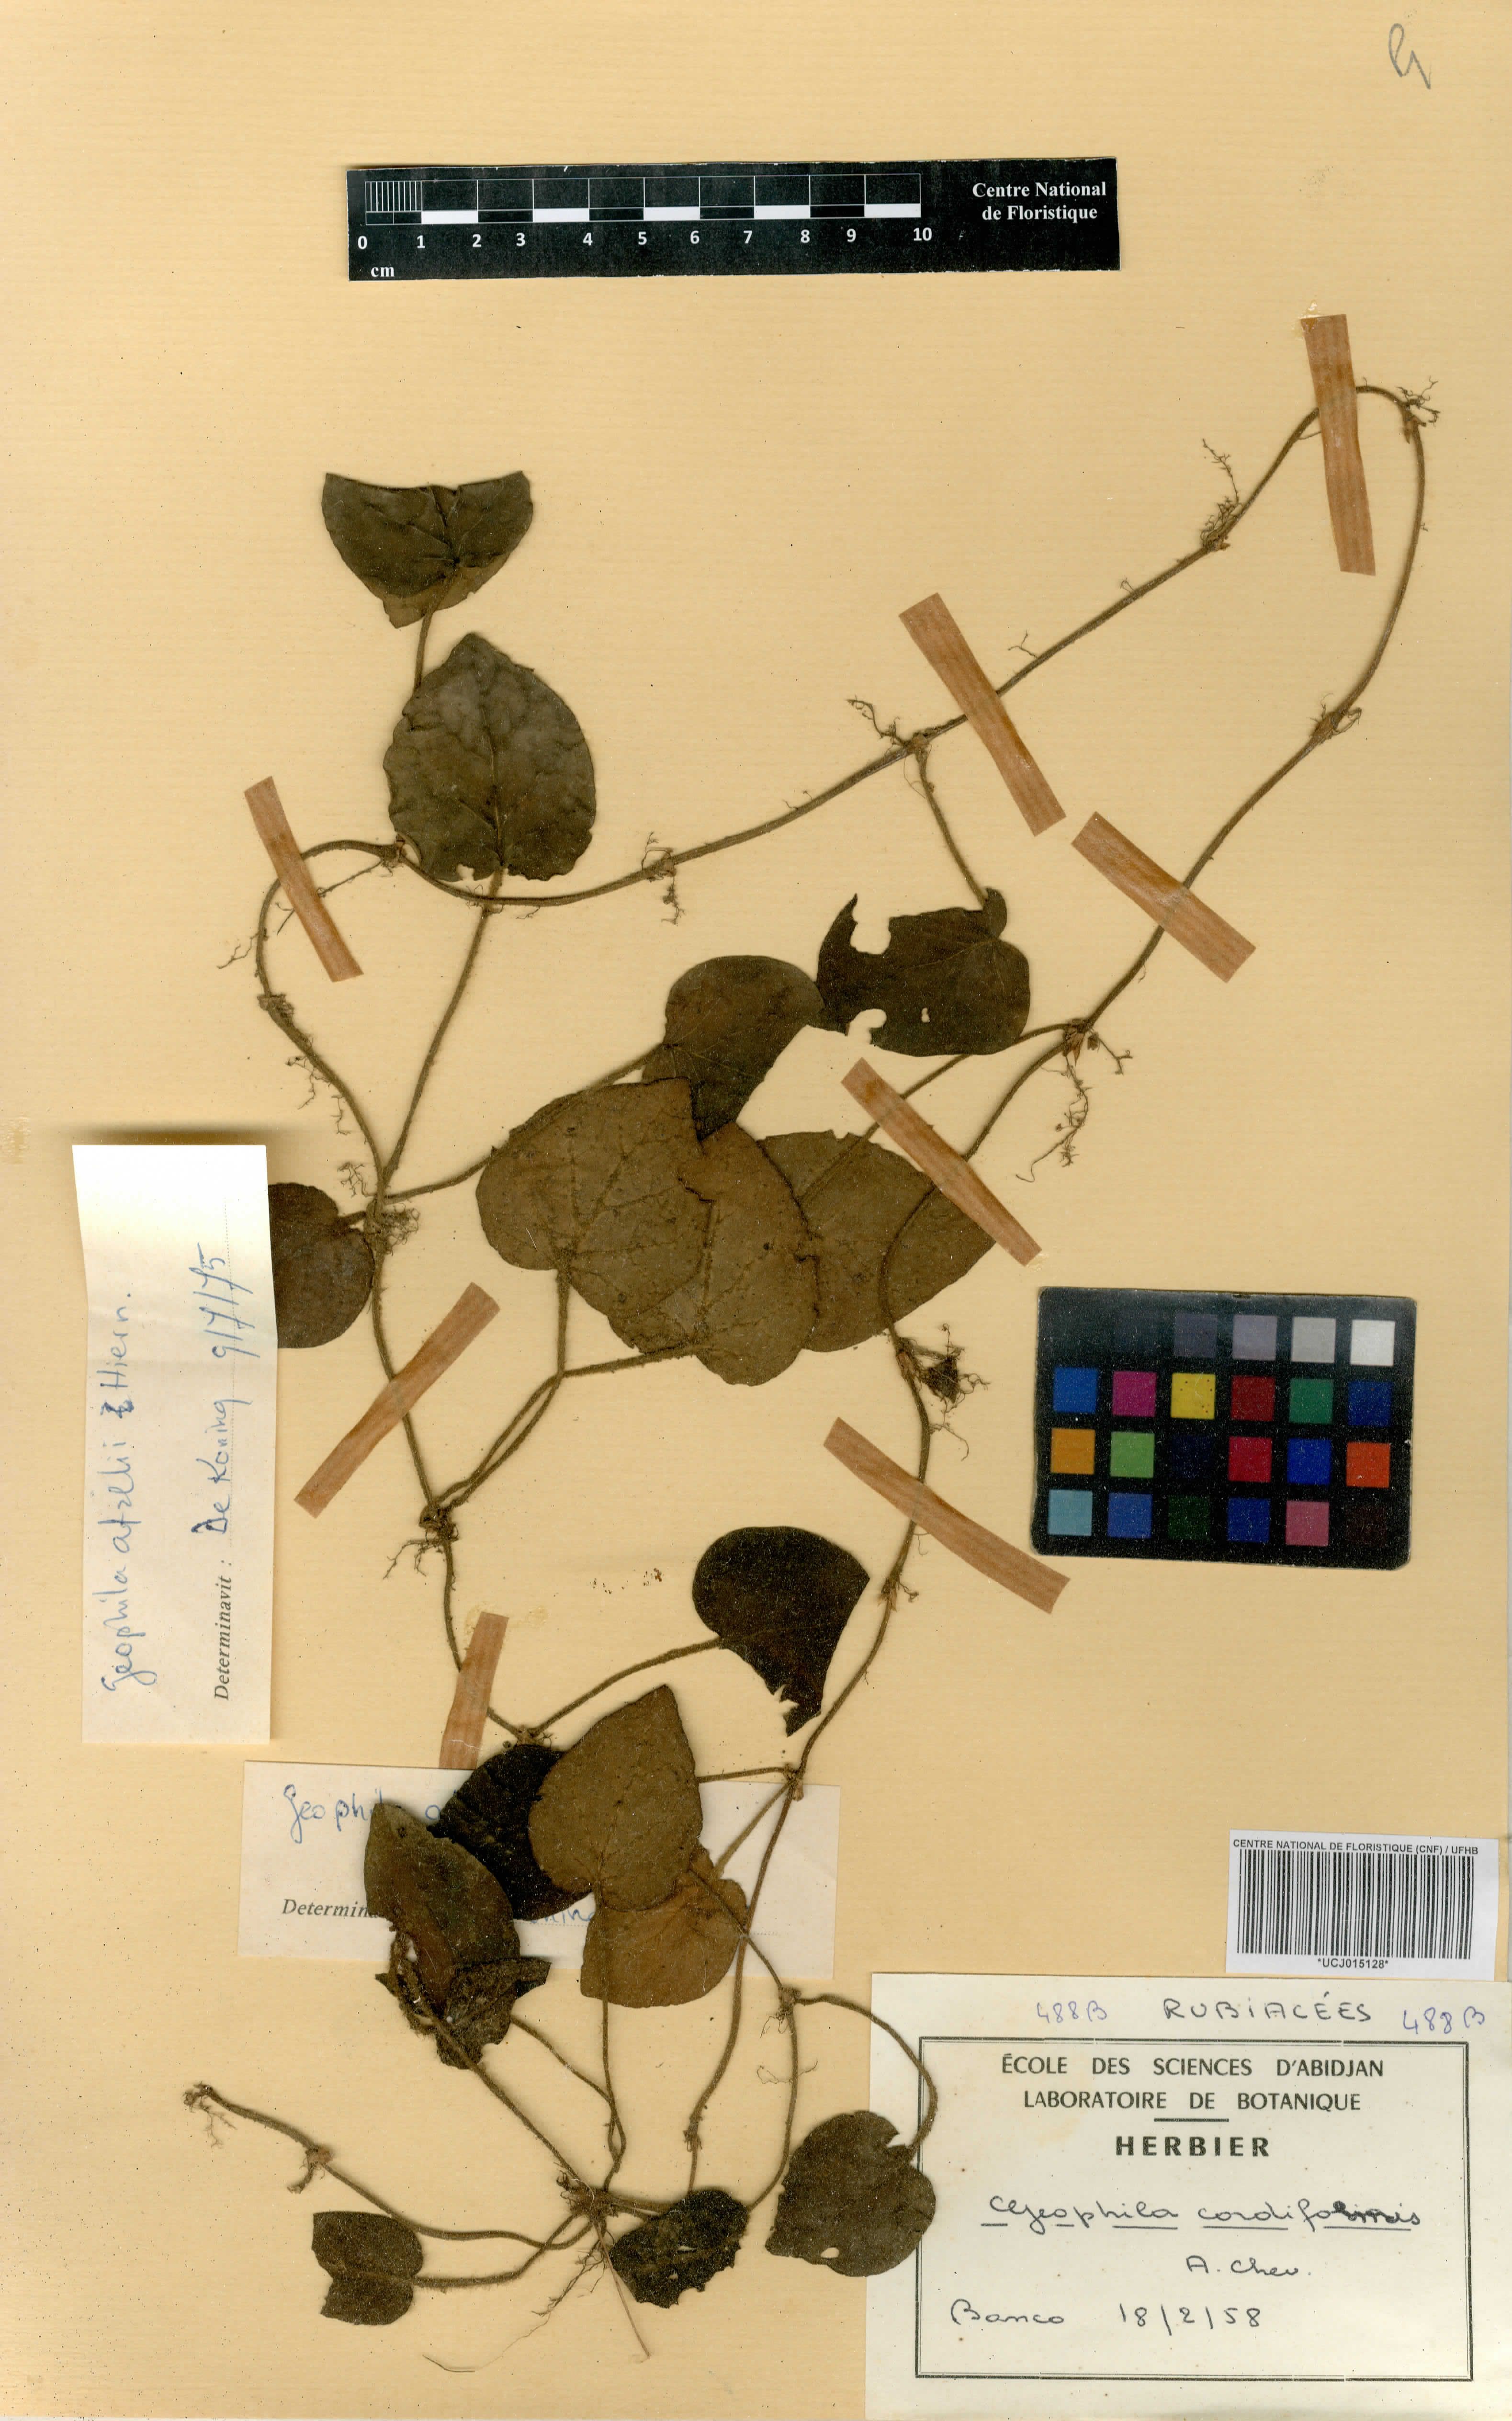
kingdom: Plantae
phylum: Tracheophyta
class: Magnoliopsida
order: Gentianales
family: Rubiaceae
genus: Geophila
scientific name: Geophila cordiformis
